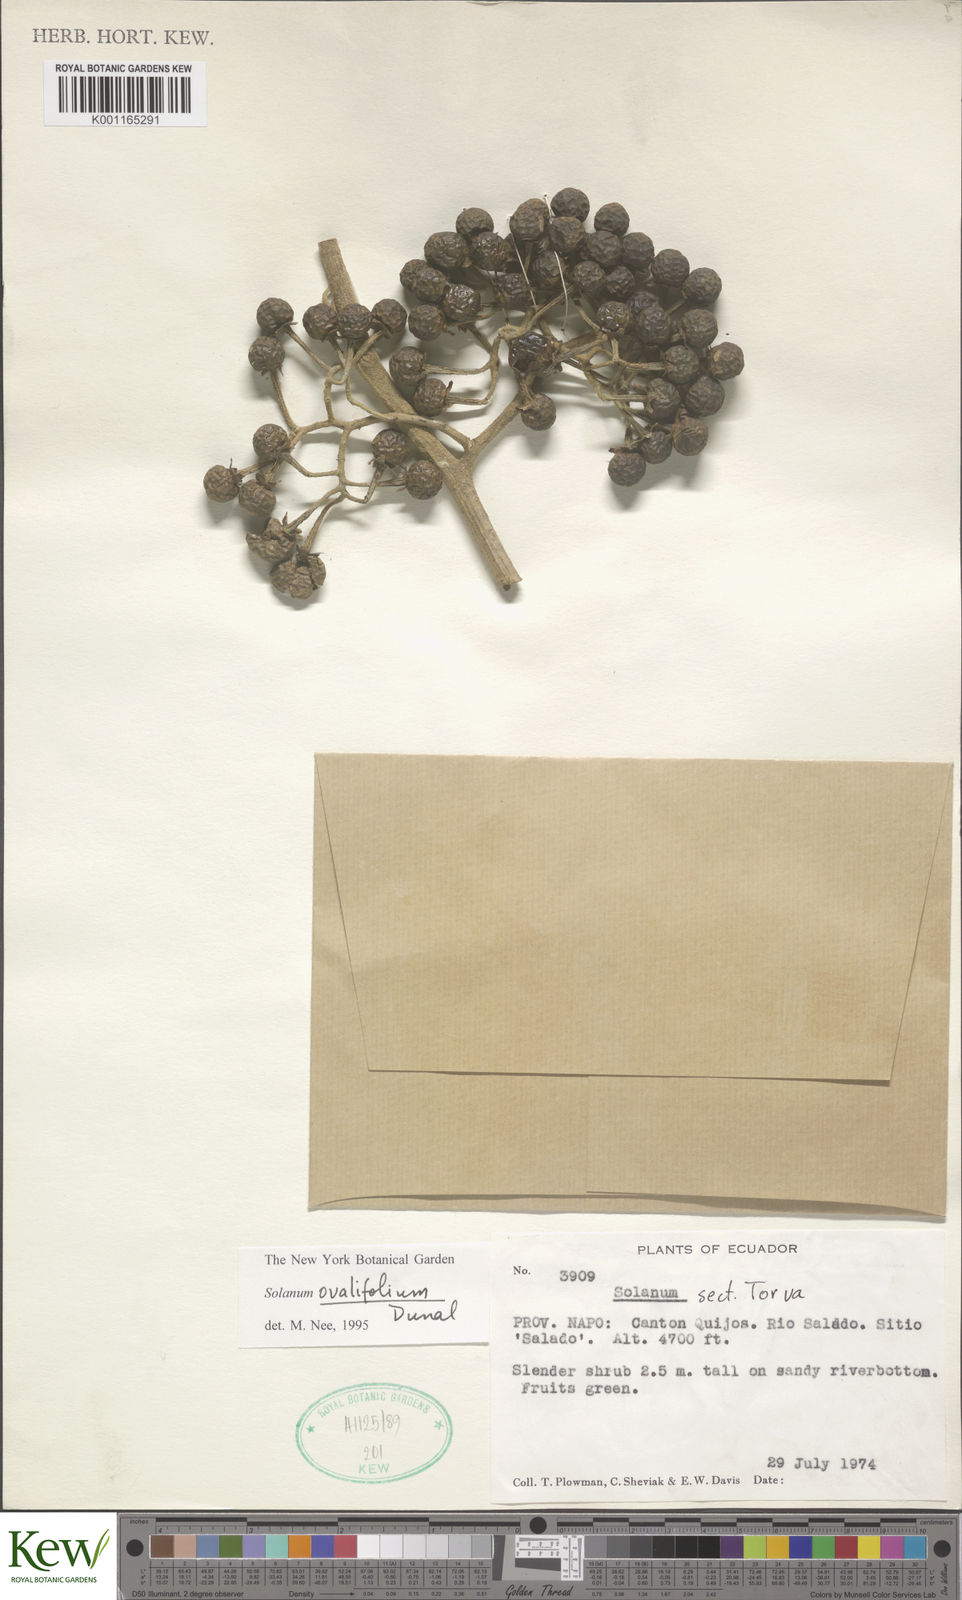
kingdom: Plantae
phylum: Tracheophyta
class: Magnoliopsida
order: Solanales
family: Solanaceae
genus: Solanum
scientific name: Solanum ovalifolium
